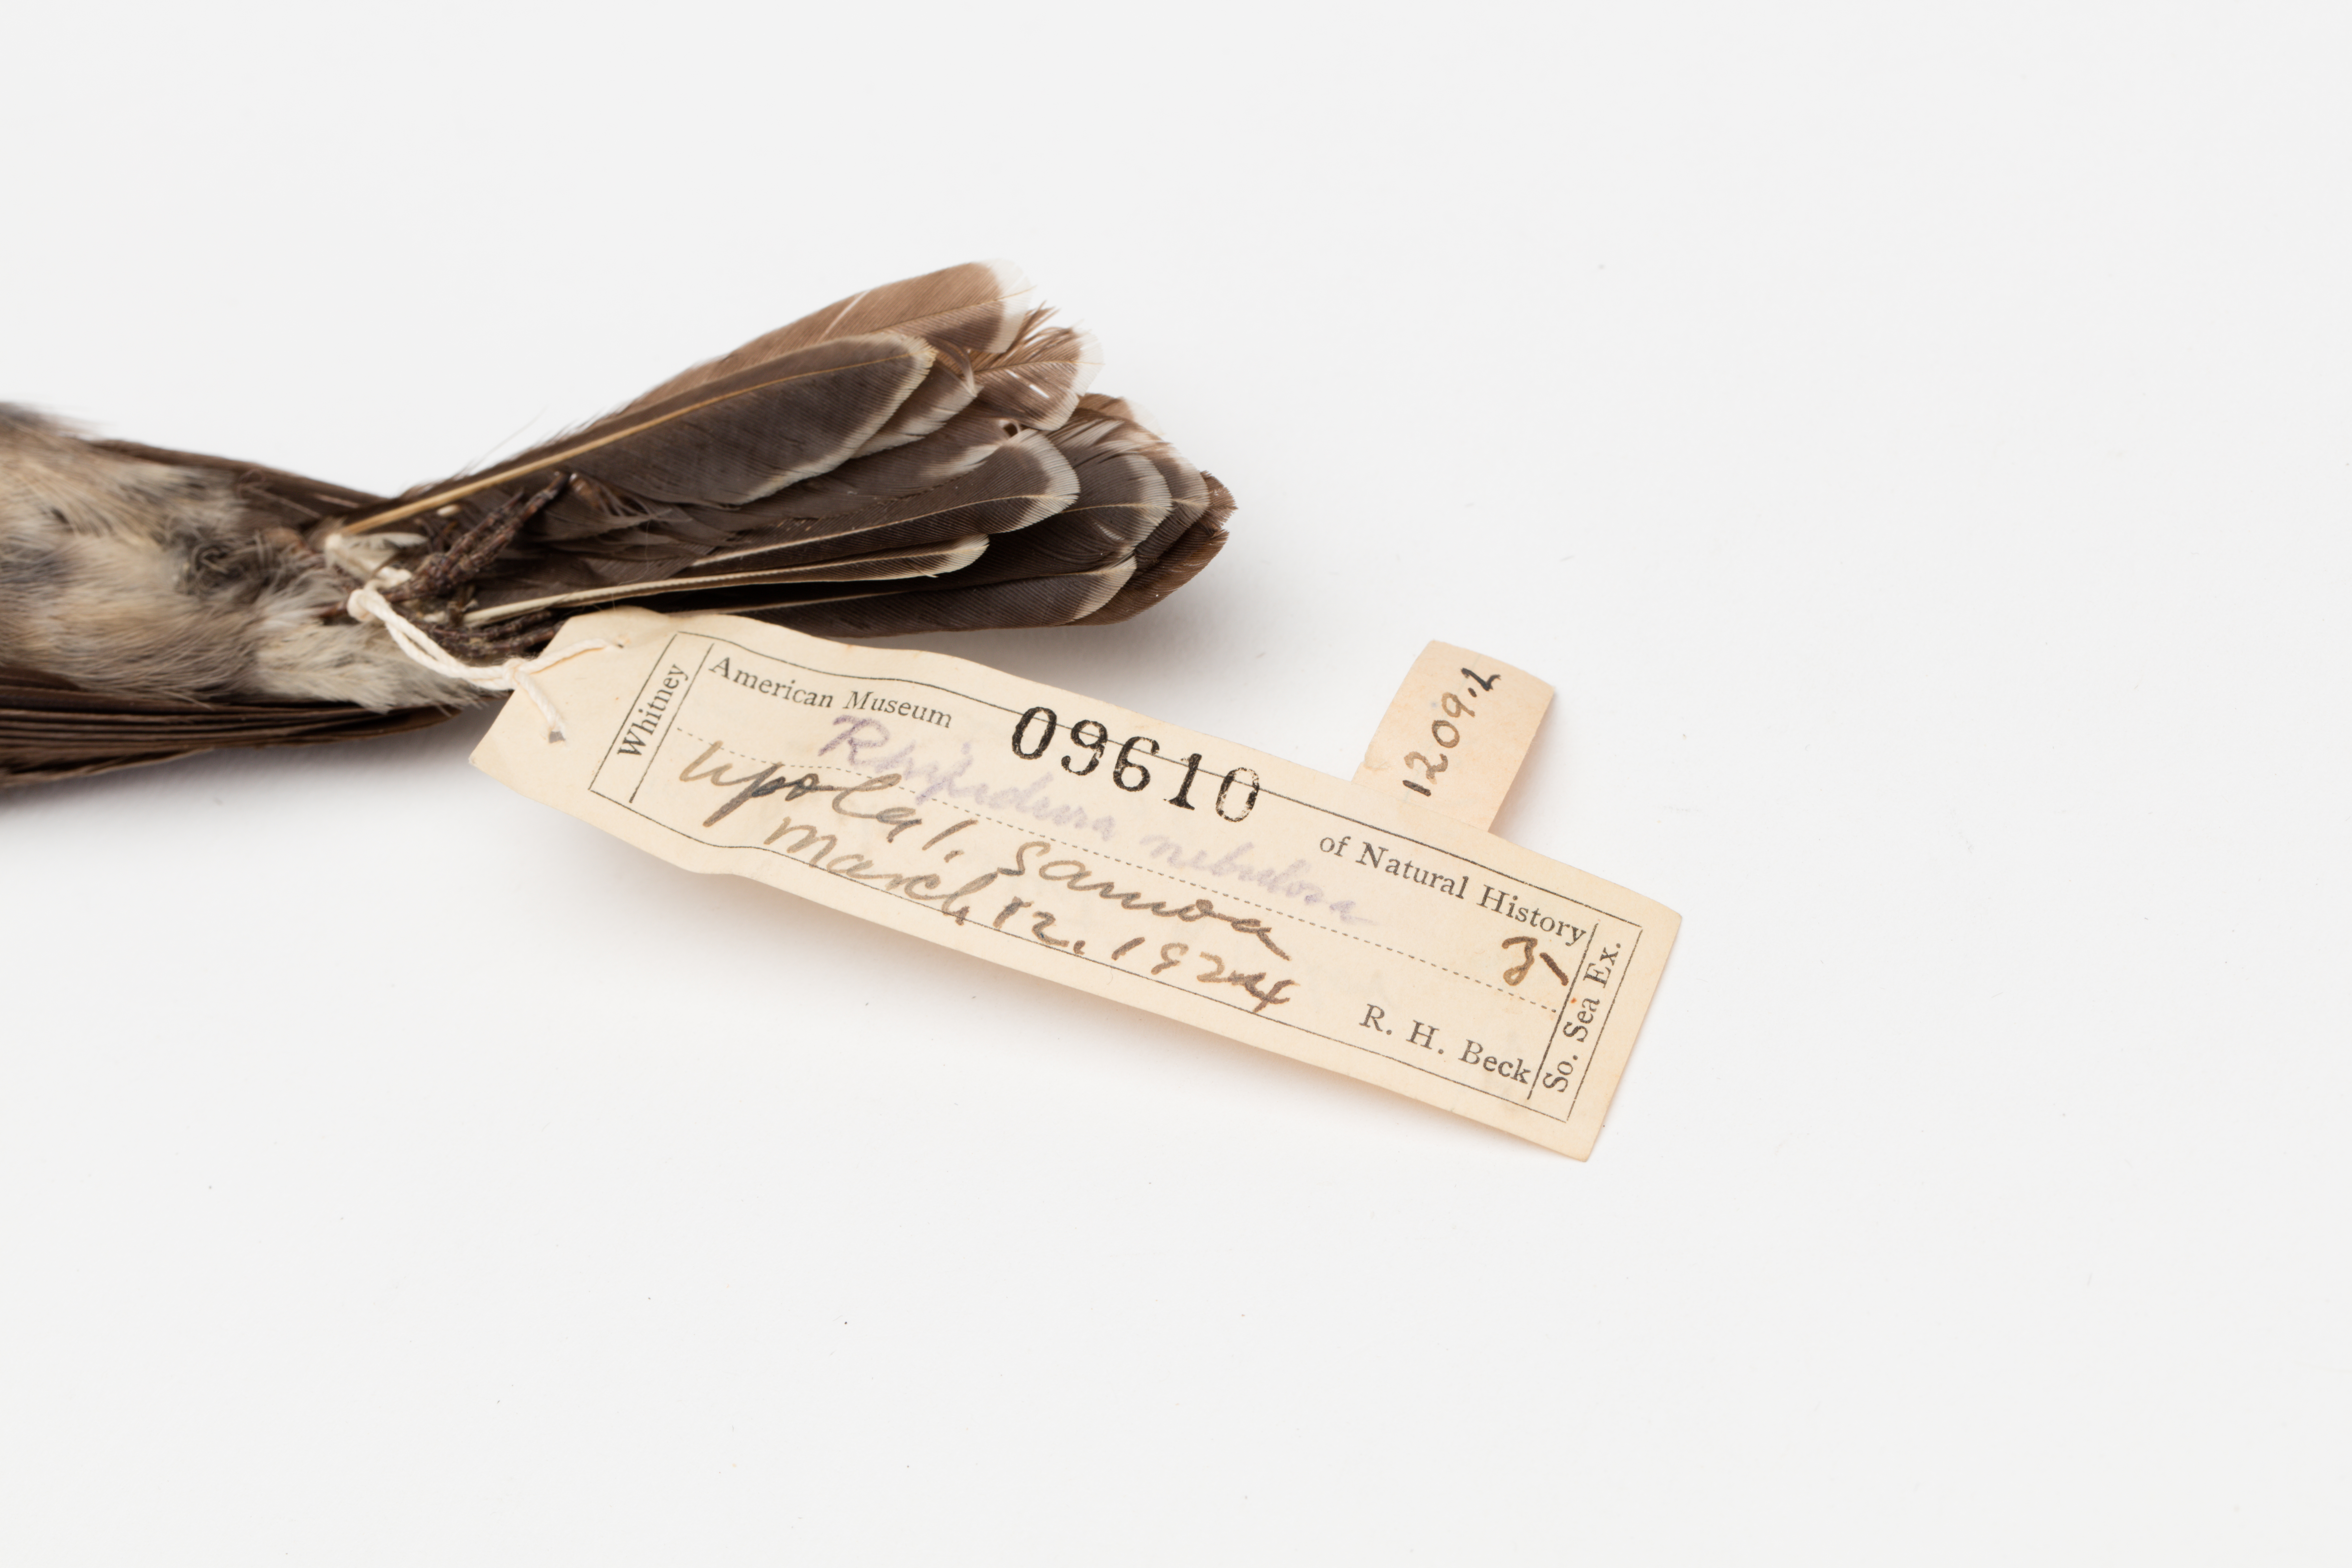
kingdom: Animalia
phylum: Chordata
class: Aves
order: Passeriformes
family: Rhipiduridae
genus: Rhipidura
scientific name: Rhipidura nebulosa
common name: Samoan fantail
